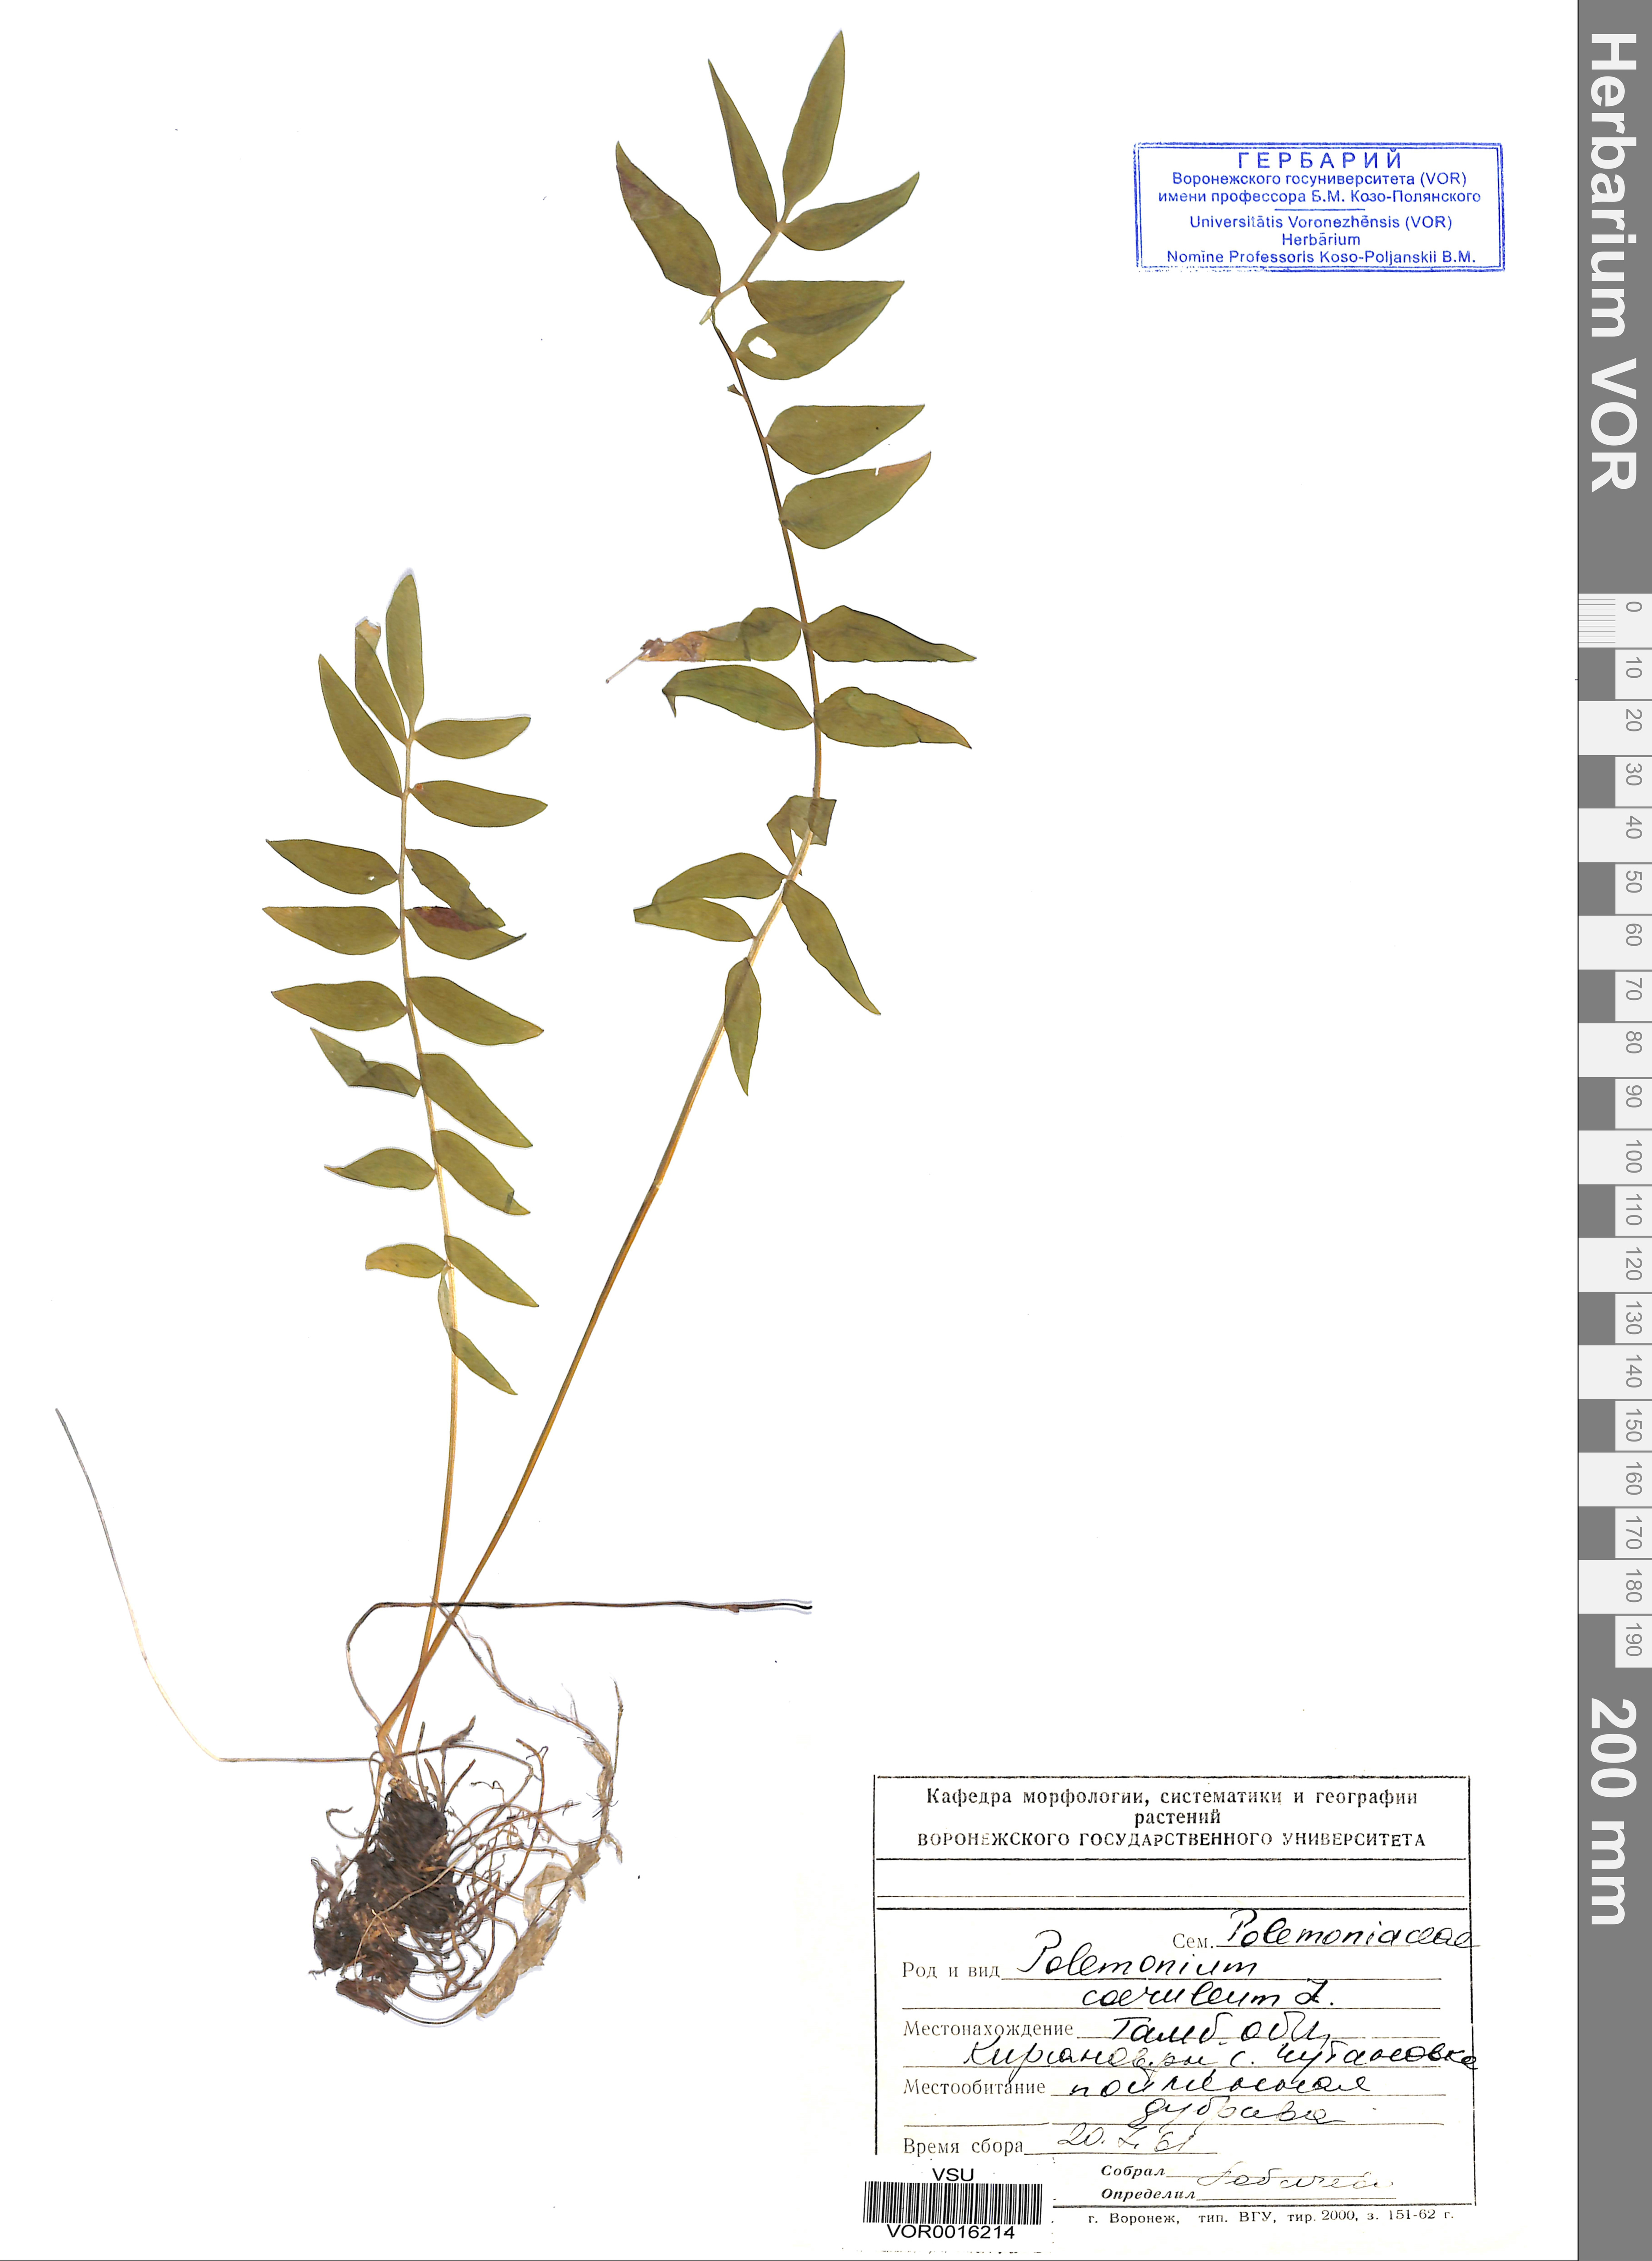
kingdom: Plantae
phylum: Tracheophyta
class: Magnoliopsida
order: Ericales
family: Polemoniaceae
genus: Polemonium
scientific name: Polemonium caeruleum
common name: Jacob's-ladder
